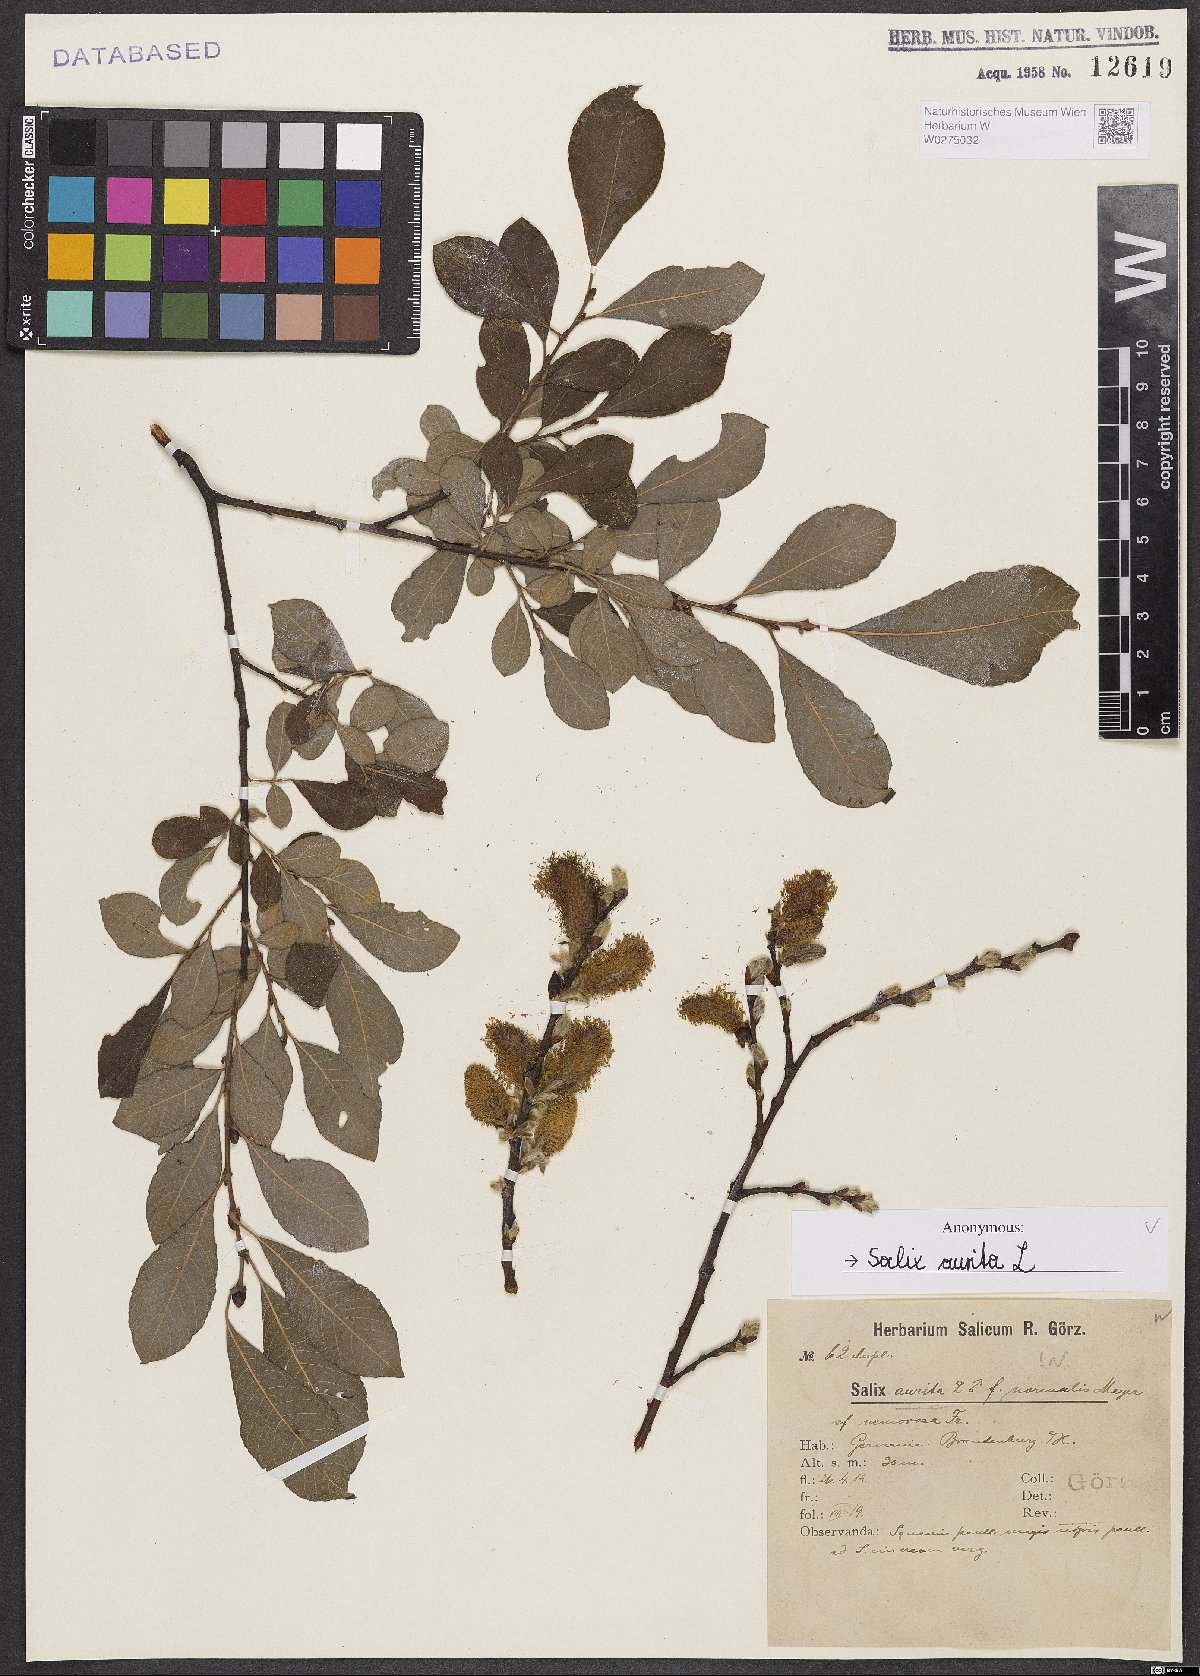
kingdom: Plantae
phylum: Tracheophyta
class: Magnoliopsida
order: Malpighiales
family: Salicaceae
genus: Salix
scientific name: Salix aurita
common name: Eared willow
